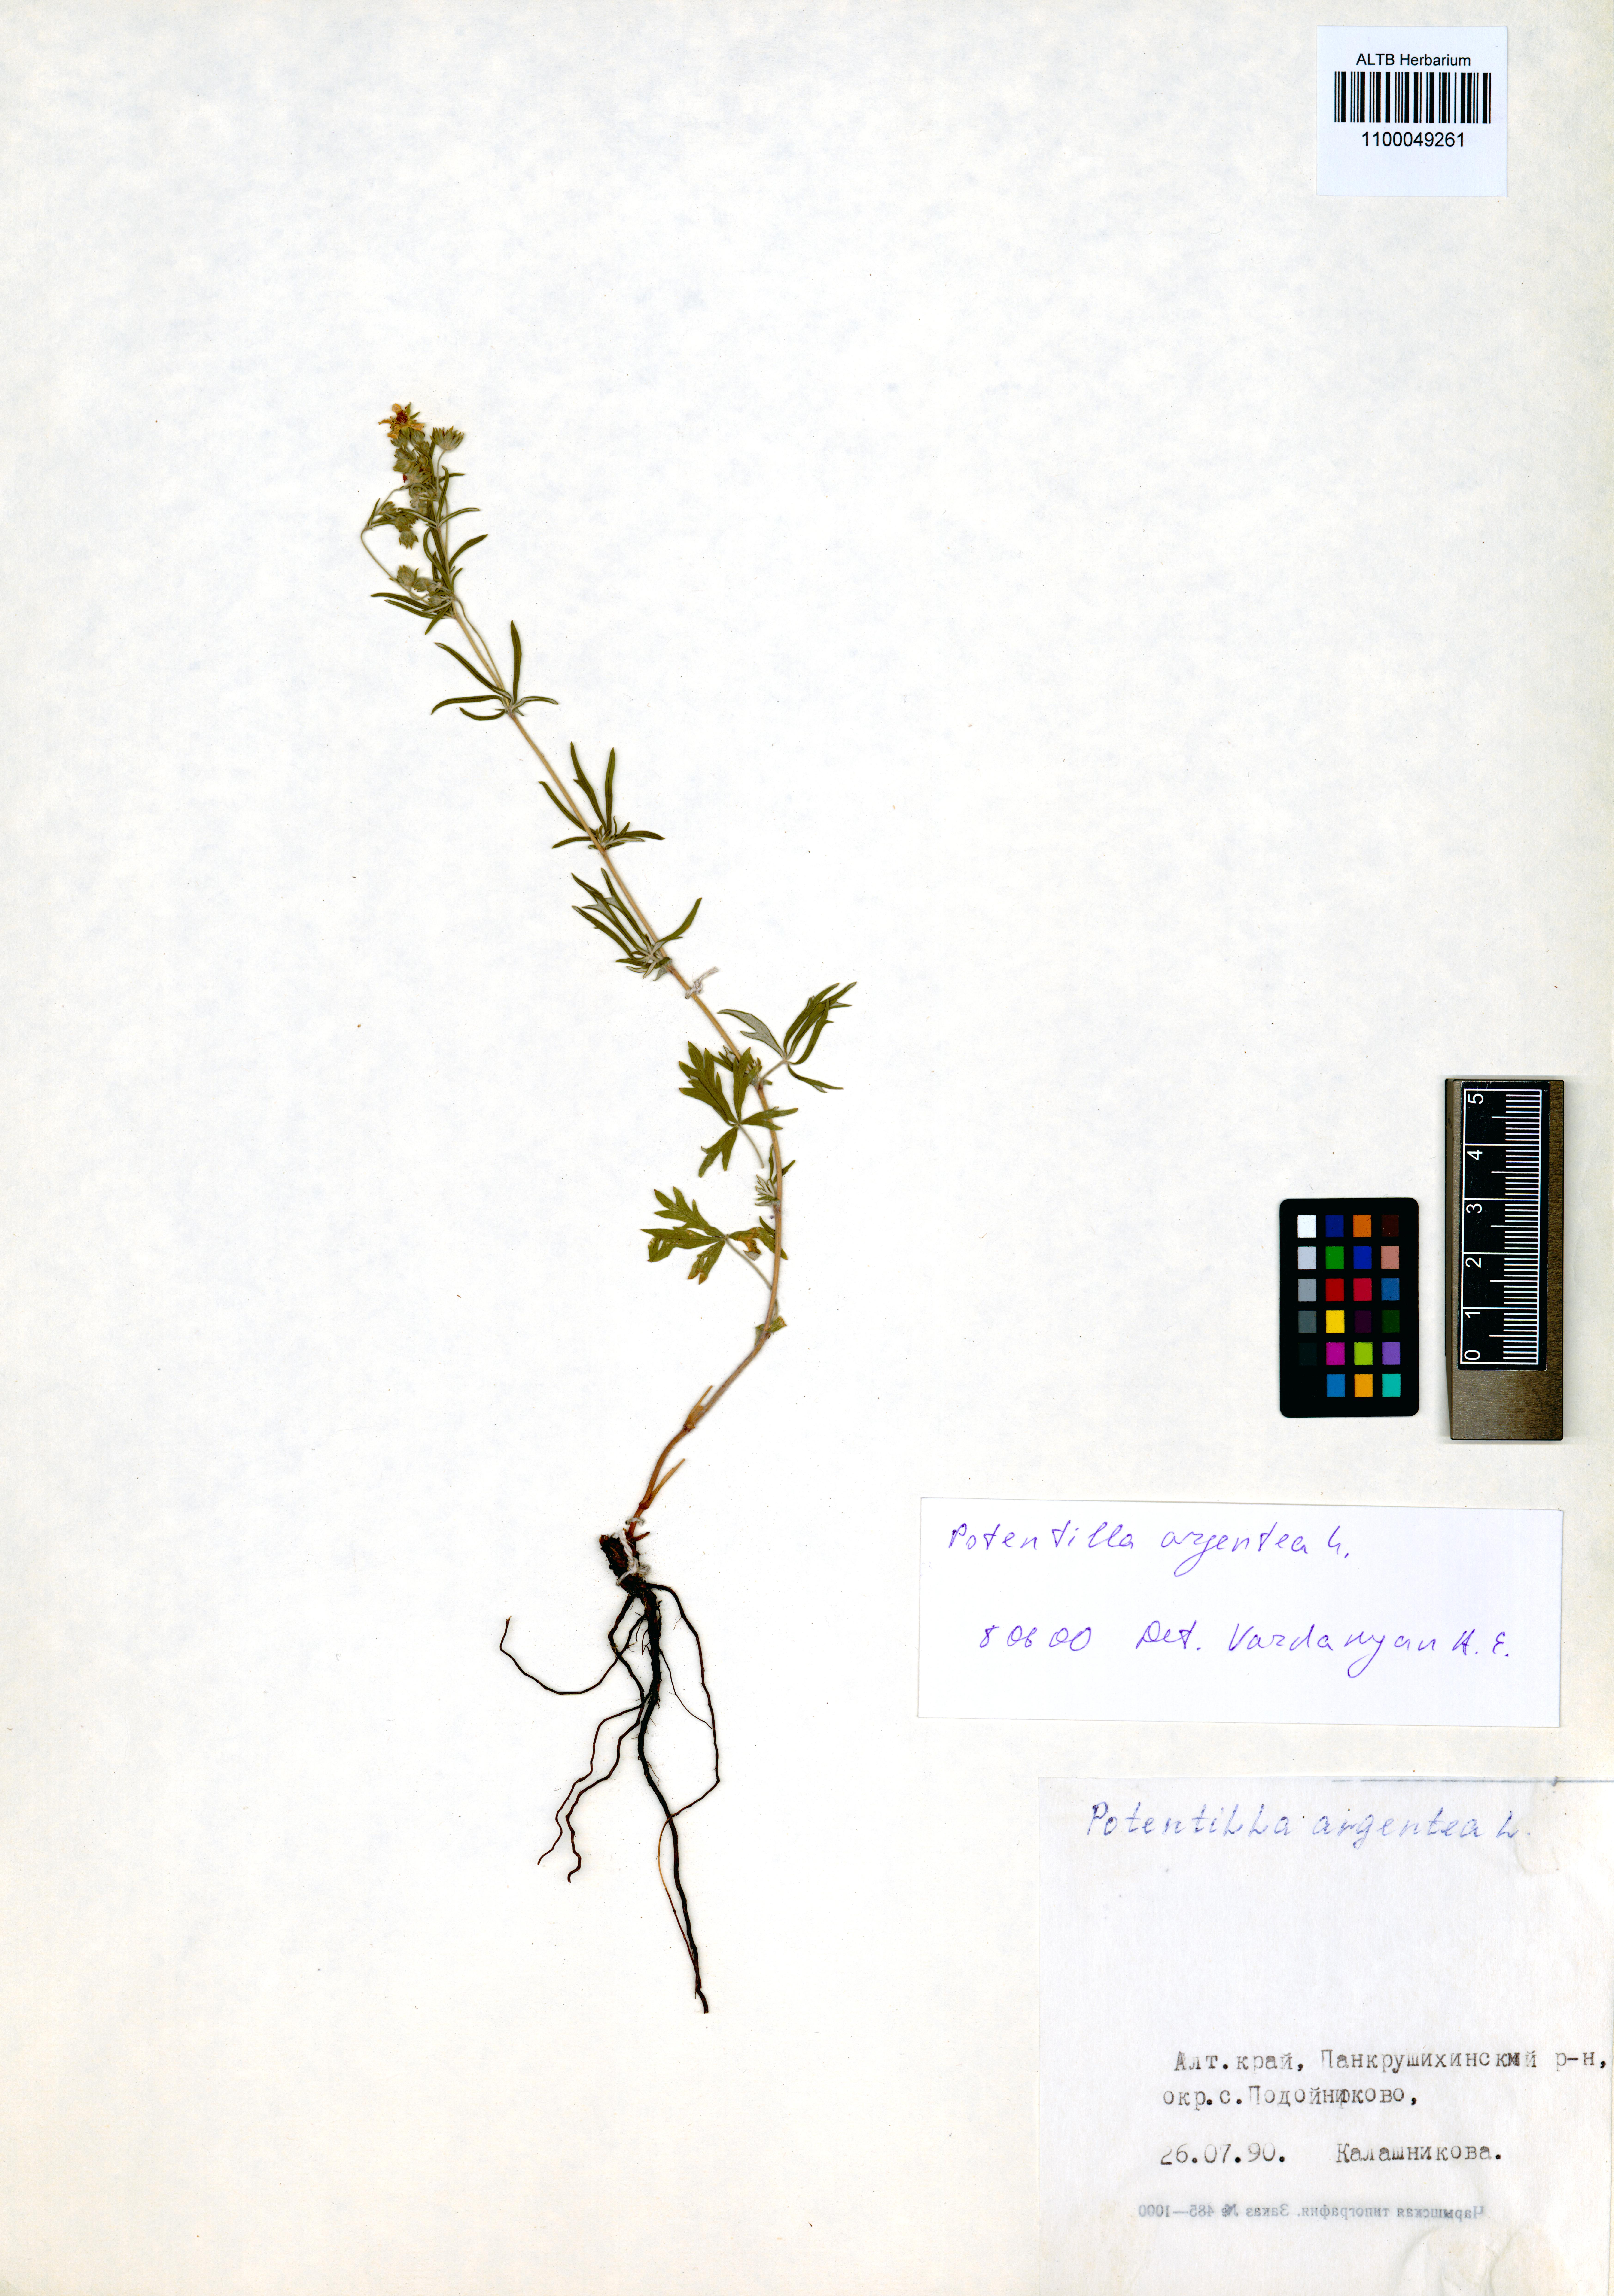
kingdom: Plantae
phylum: Tracheophyta
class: Magnoliopsida
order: Rosales
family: Rosaceae
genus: Potentilla
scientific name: Potentilla argentea
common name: Hoary cinquefoil
